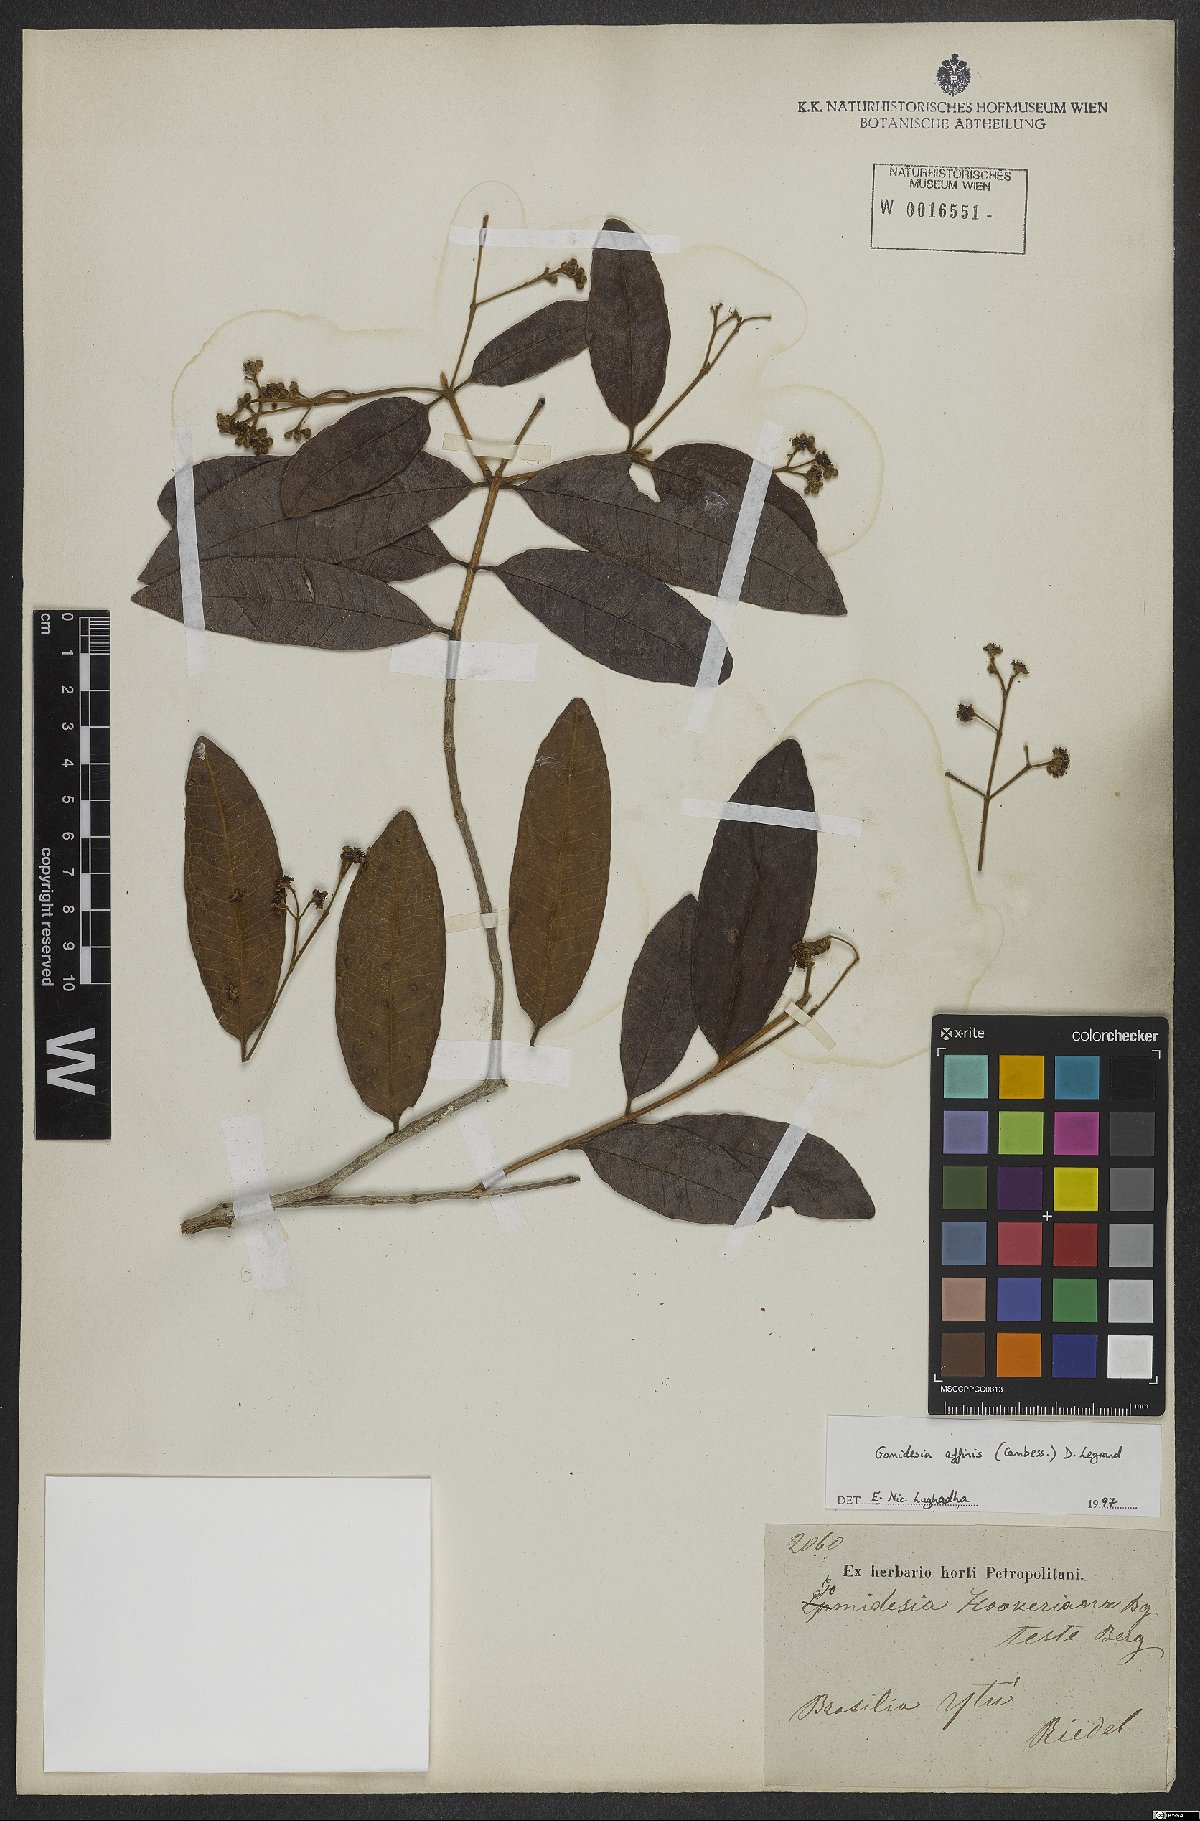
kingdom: Plantae
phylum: Tracheophyta
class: Magnoliopsida
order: Myrtales
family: Myrtaceae
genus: Myrcia
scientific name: Myrcia hebepetala
